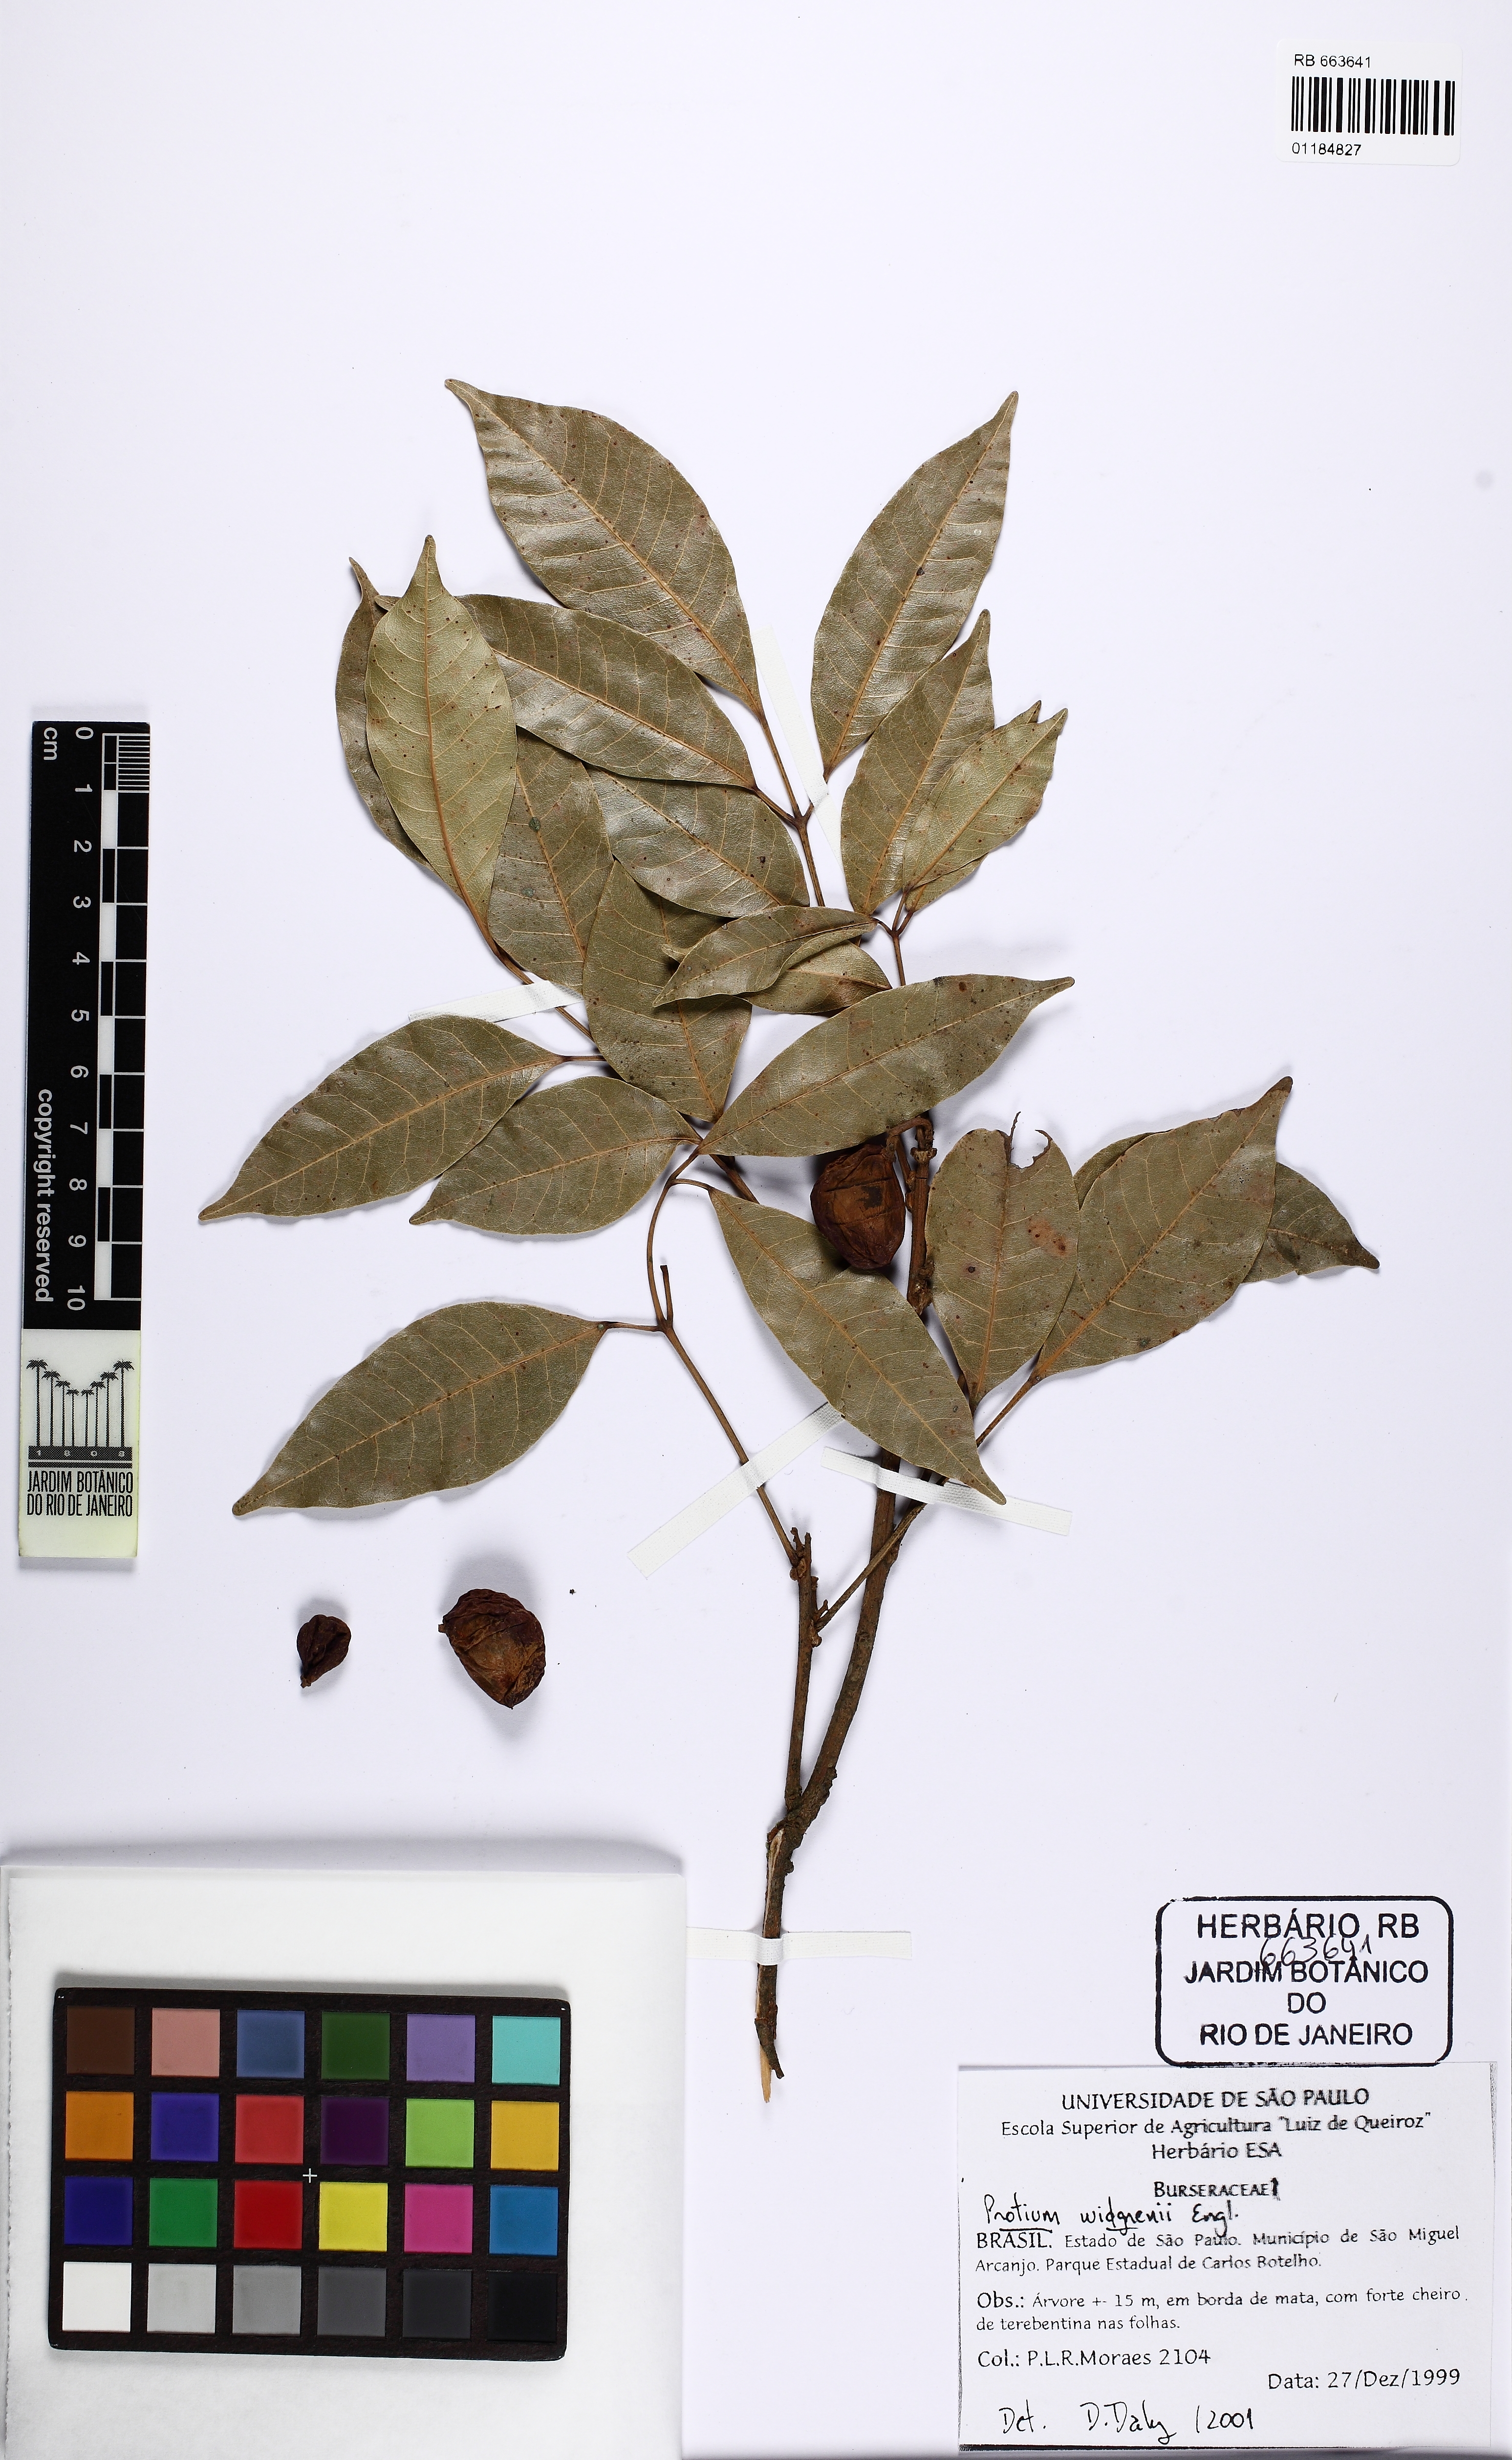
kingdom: Plantae
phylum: Tracheophyta
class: Magnoliopsida
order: Sapindales
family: Burseraceae
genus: Protium
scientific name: Protium widgrenii
